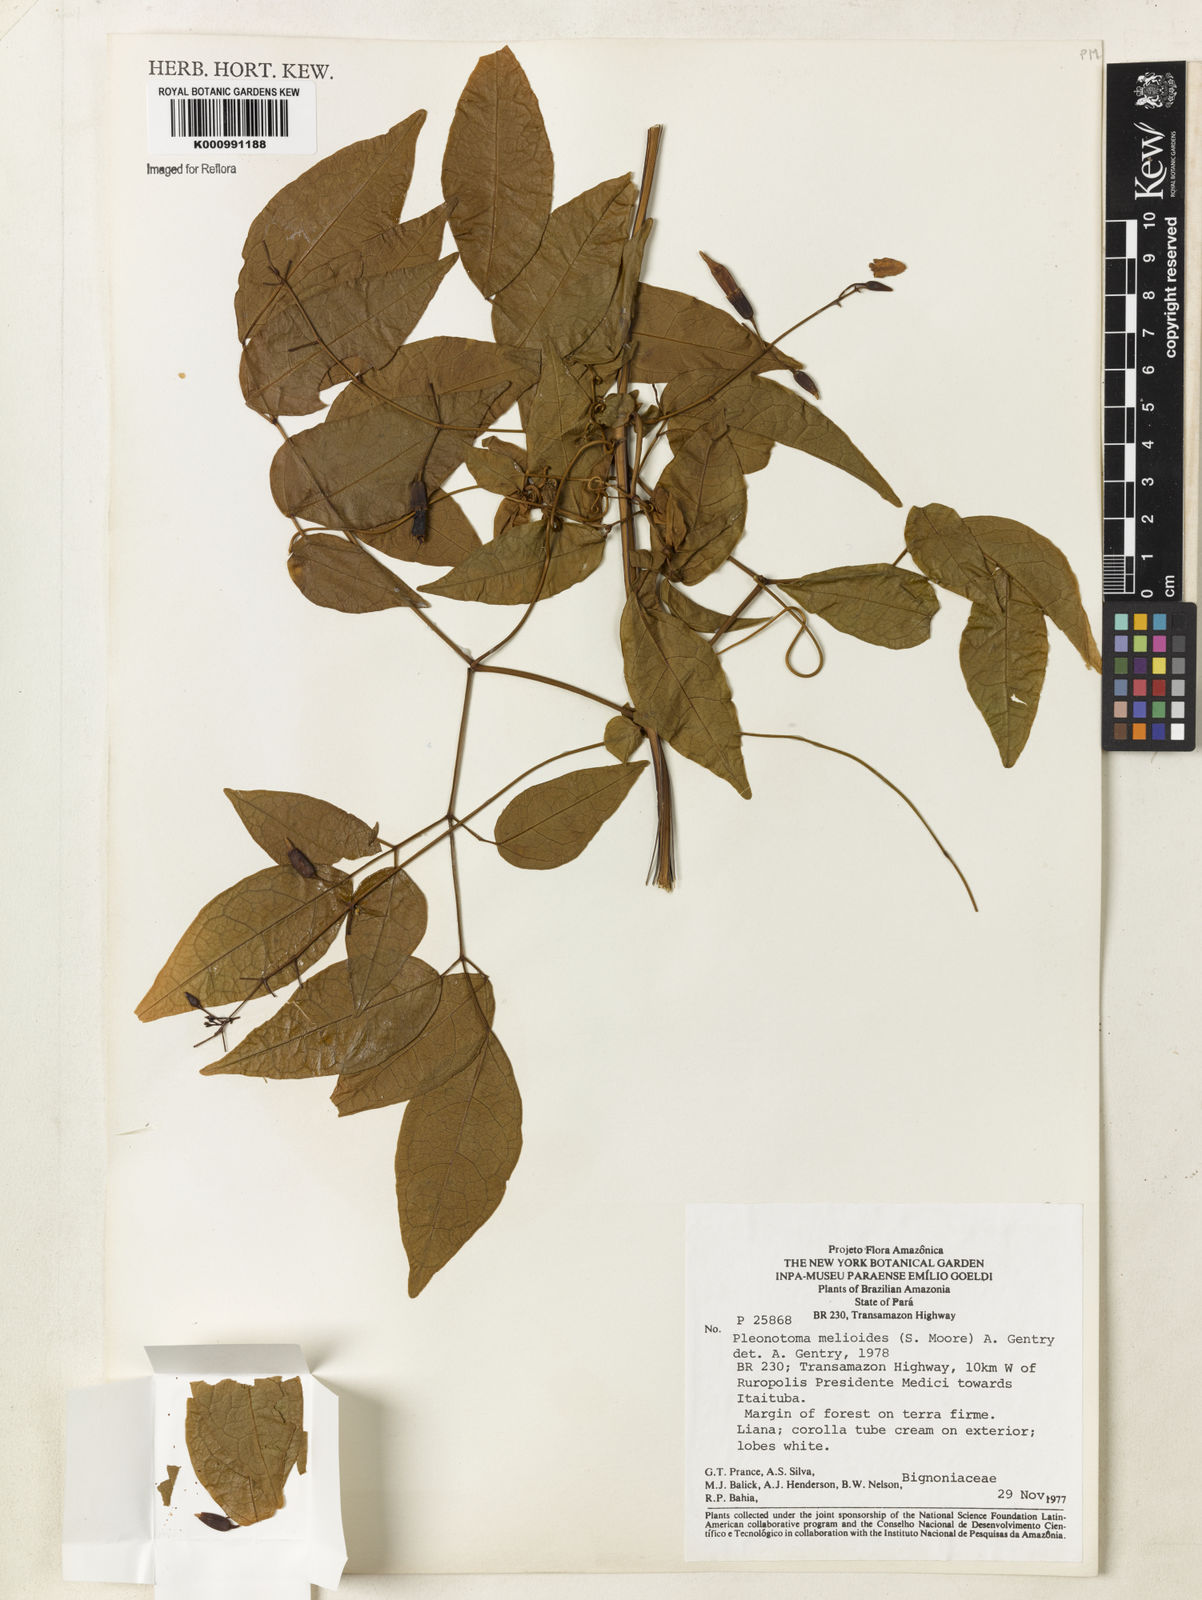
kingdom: Plantae
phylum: Tracheophyta
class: Magnoliopsida
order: Lamiales
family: Bignoniaceae
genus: Pleonotoma
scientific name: Pleonotoma melioides
